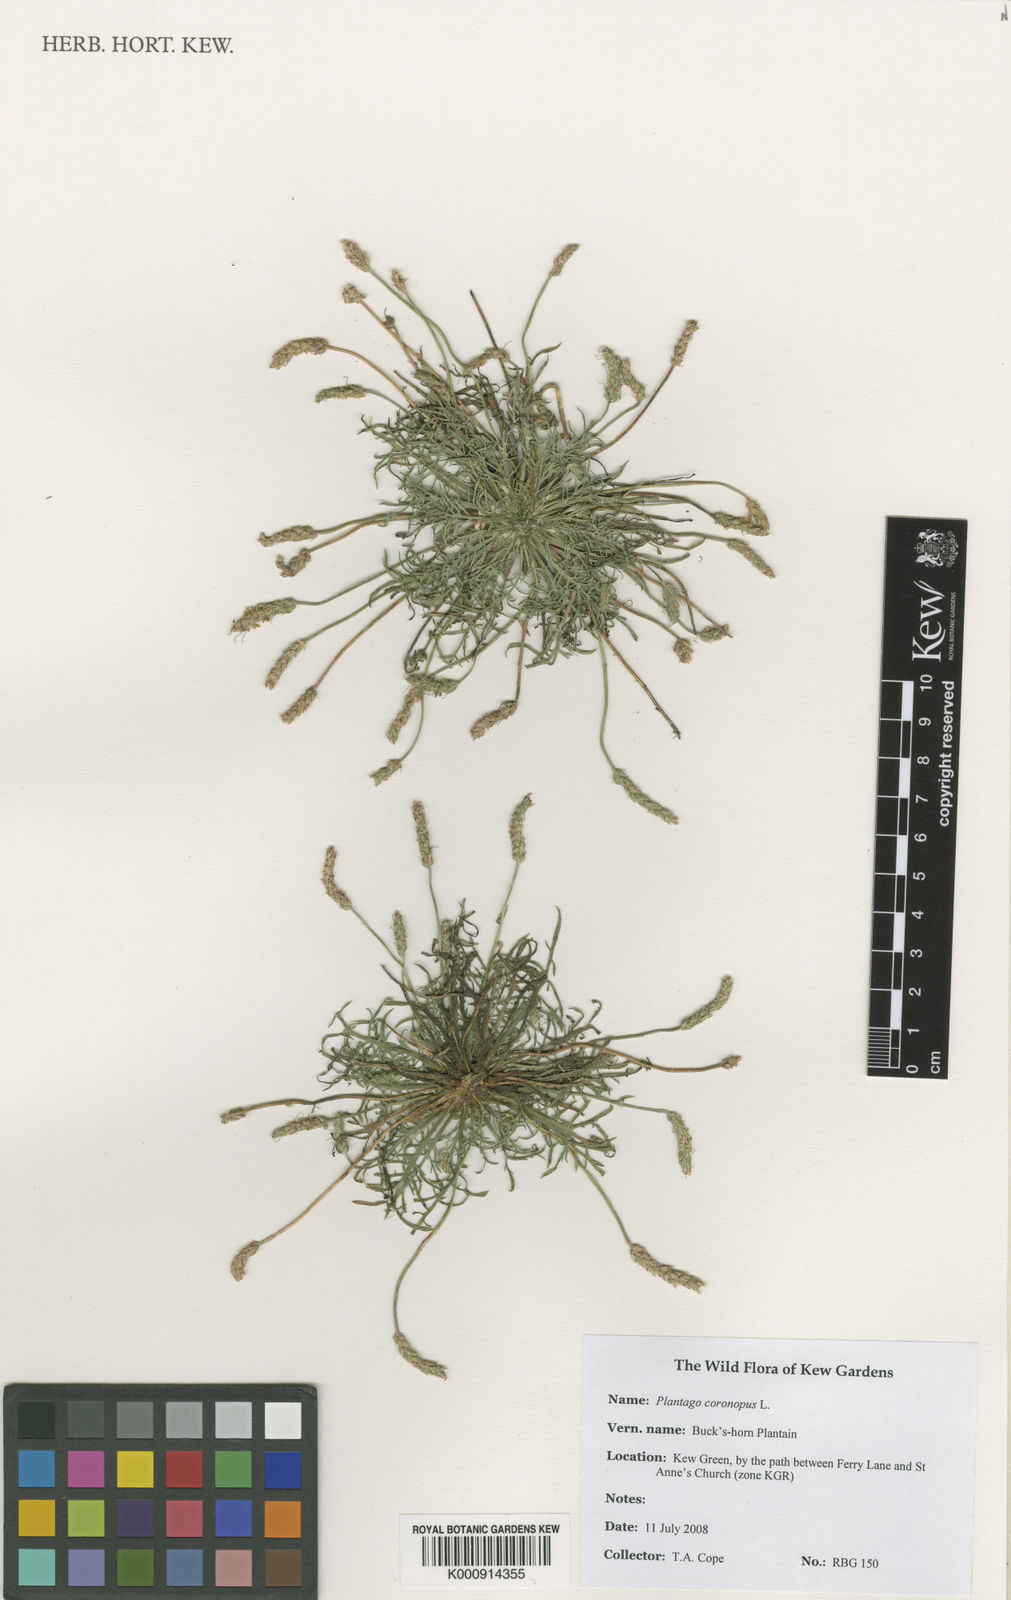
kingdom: Plantae
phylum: Tracheophyta
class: Magnoliopsida
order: Lamiales
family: Plantaginaceae
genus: Plantago
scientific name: Plantago coronopus
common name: Buck's-horn plantain
